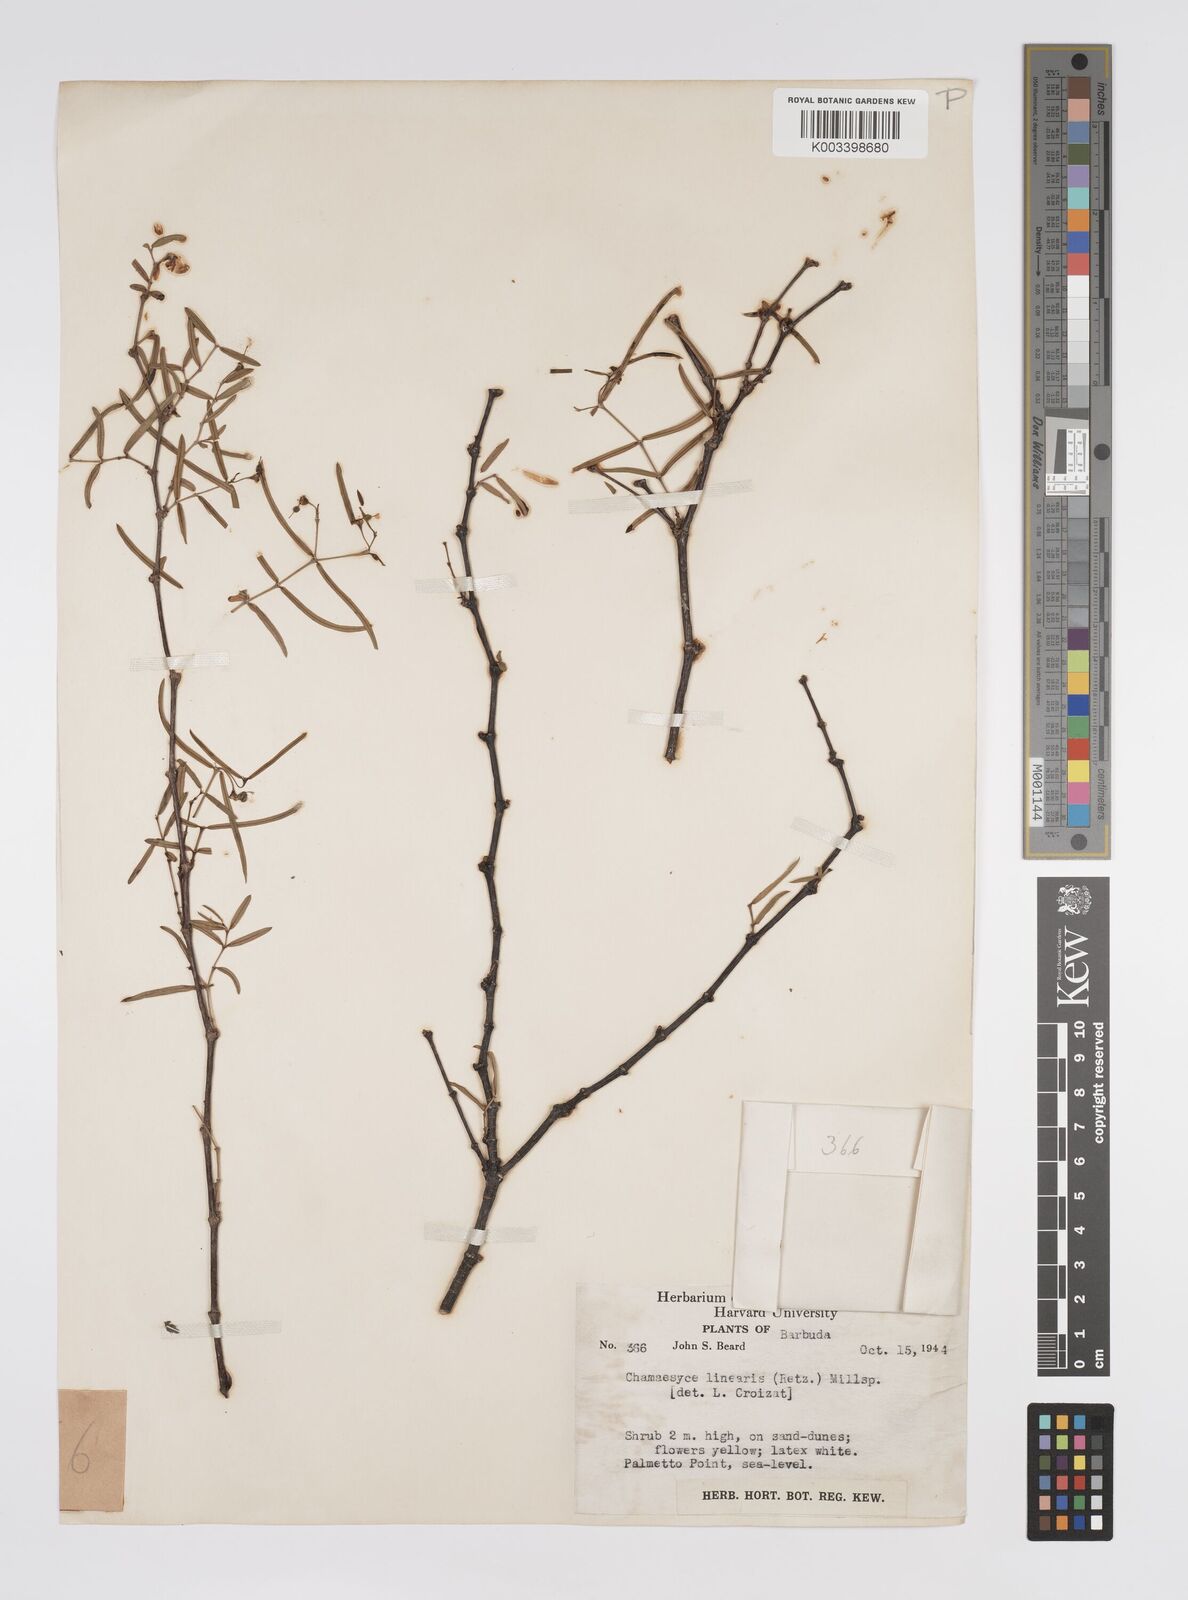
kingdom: Plantae
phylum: Tracheophyta
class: Magnoliopsida
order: Malpighiales
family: Euphorbiaceae
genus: Euphorbia
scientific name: Euphorbia articulata
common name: Jointed sandmat
